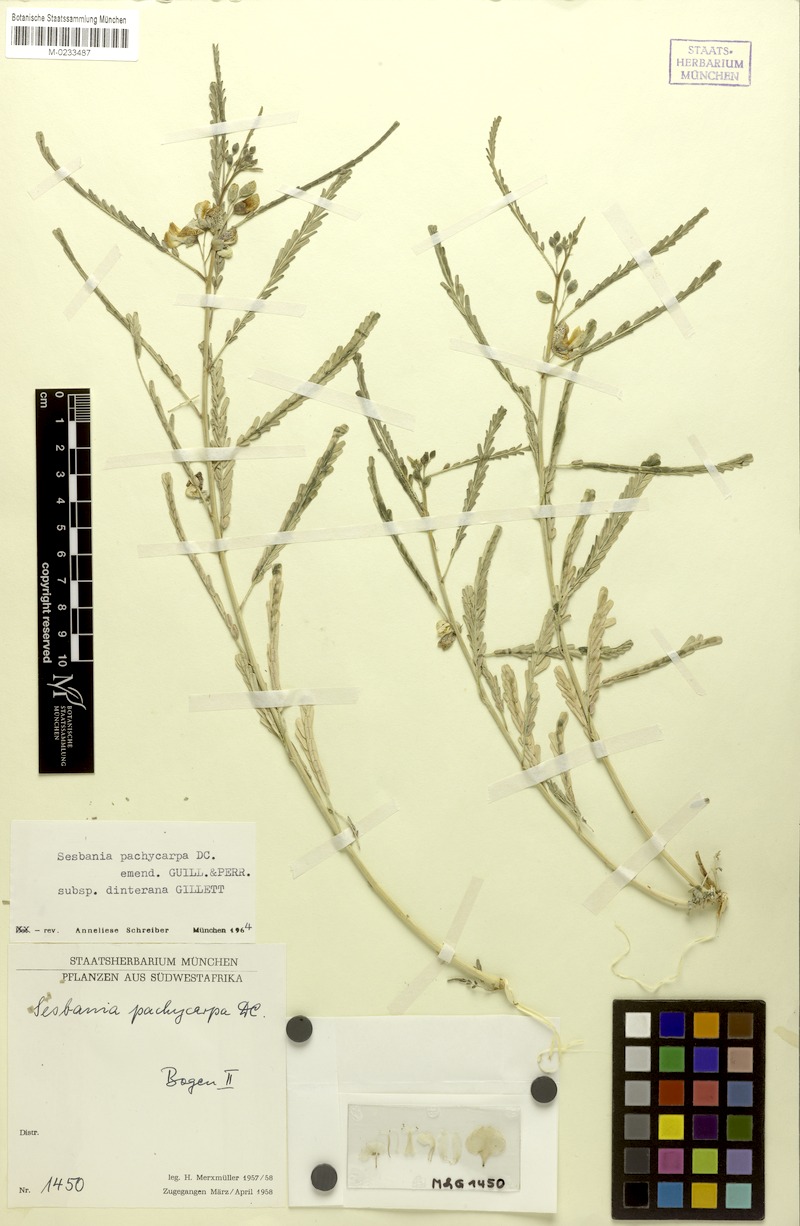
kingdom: Plantae
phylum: Tracheophyta
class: Magnoliopsida
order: Fabales
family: Fabaceae
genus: Sesbania
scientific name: Sesbania pachycarpa
